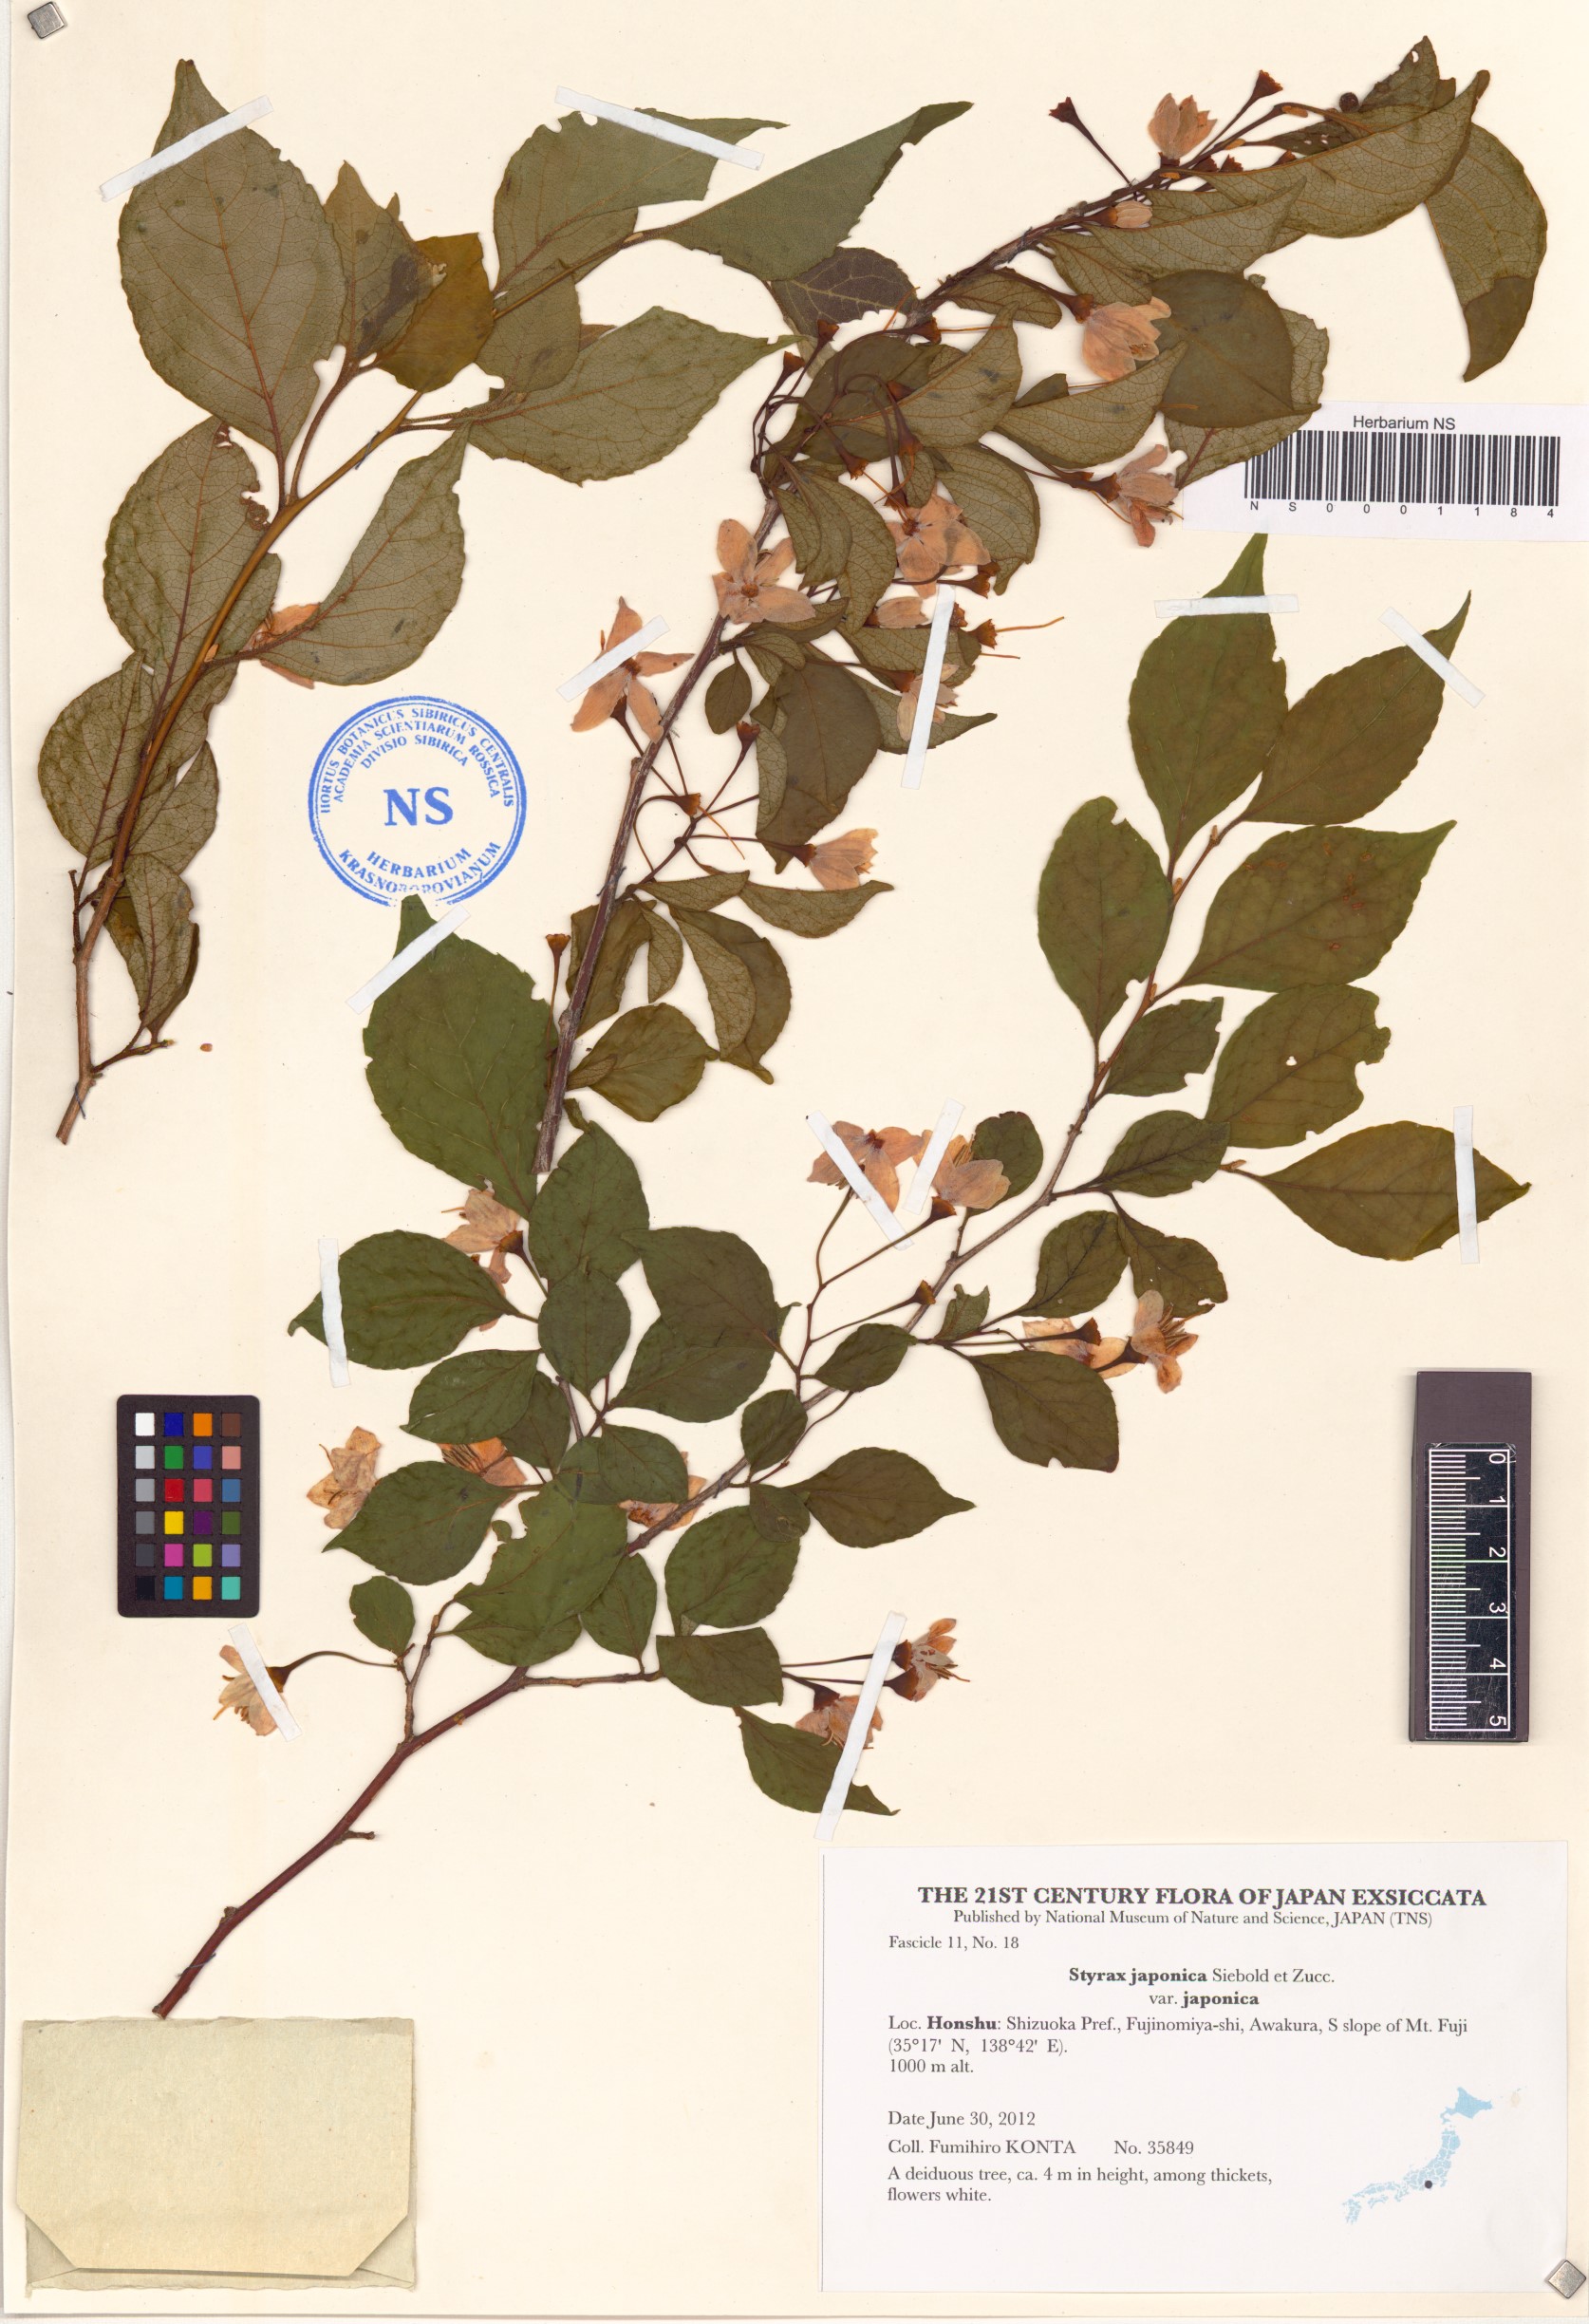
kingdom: Plantae
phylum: Tracheophyta
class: Magnoliopsida
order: Ericales
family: Styracaceae
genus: Styrax
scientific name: Styrax japonicus
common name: Japanese snowbell
